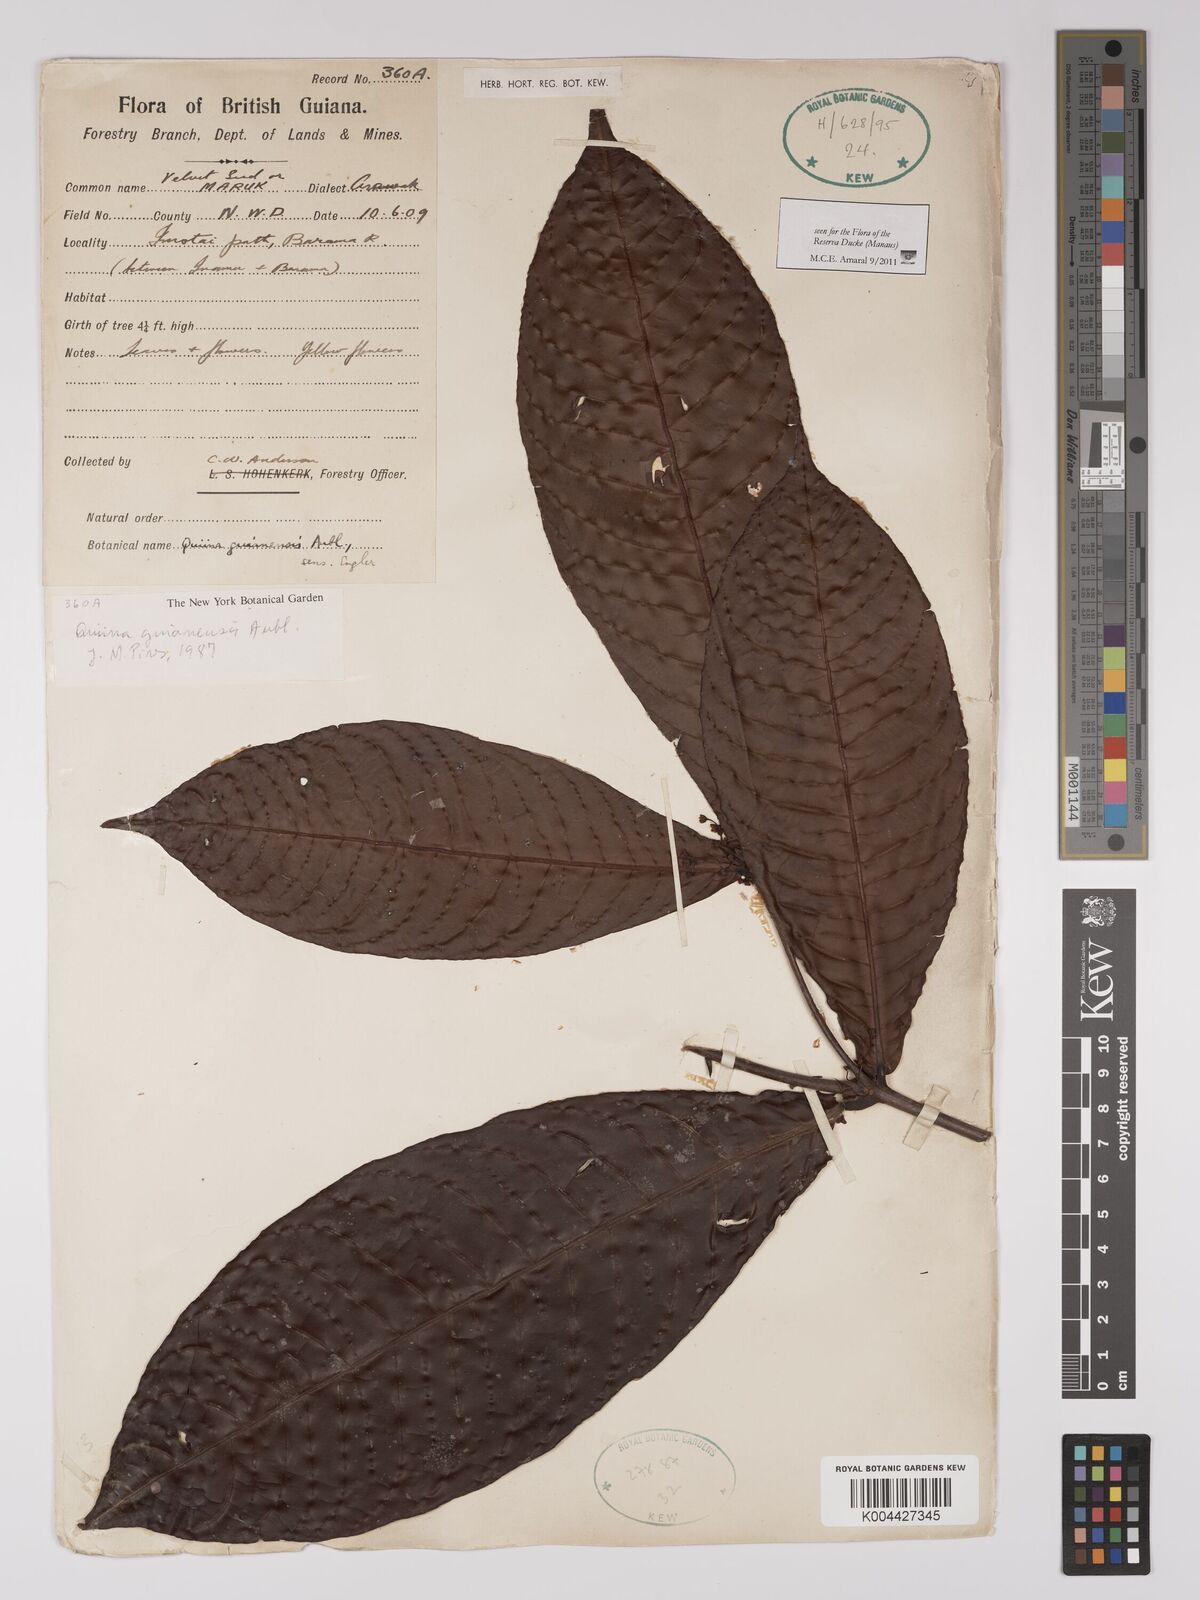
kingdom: Plantae
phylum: Tracheophyta
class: Magnoliopsida
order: Malpighiales
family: Quiinaceae
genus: Quiina
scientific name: Quiina guianensis
